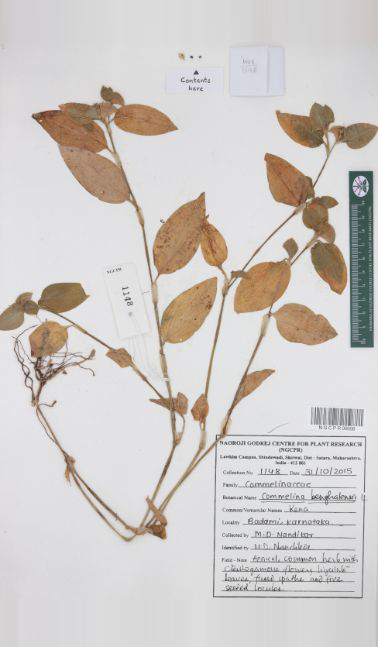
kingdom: Plantae
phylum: Tracheophyta
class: Liliopsida
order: Commelinales
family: Commelinaceae
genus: Commelina
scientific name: Commelina benghalensis
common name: Jio
